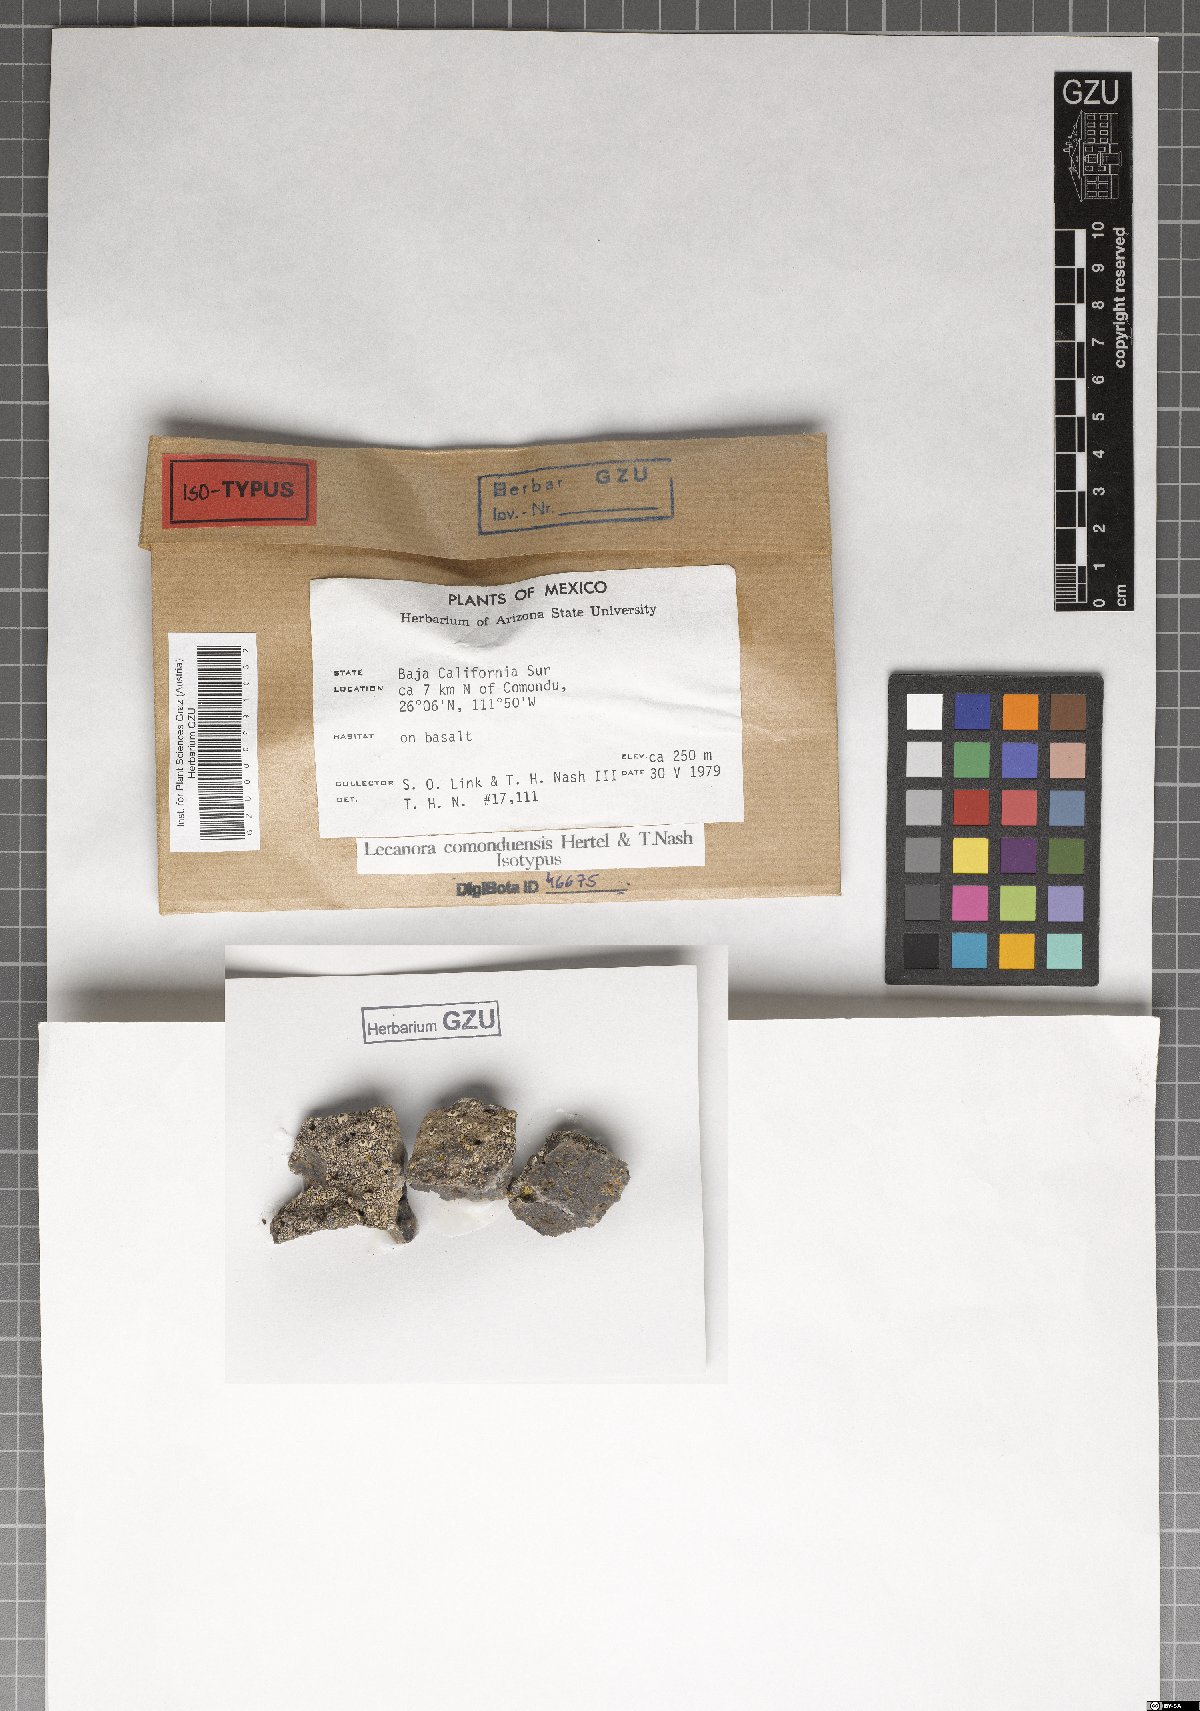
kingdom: Fungi
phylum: Ascomycota
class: Lecanoromycetes
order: Lecanorales
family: Lecanoraceae
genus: Lecanora
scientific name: Lecanora comoduensis
